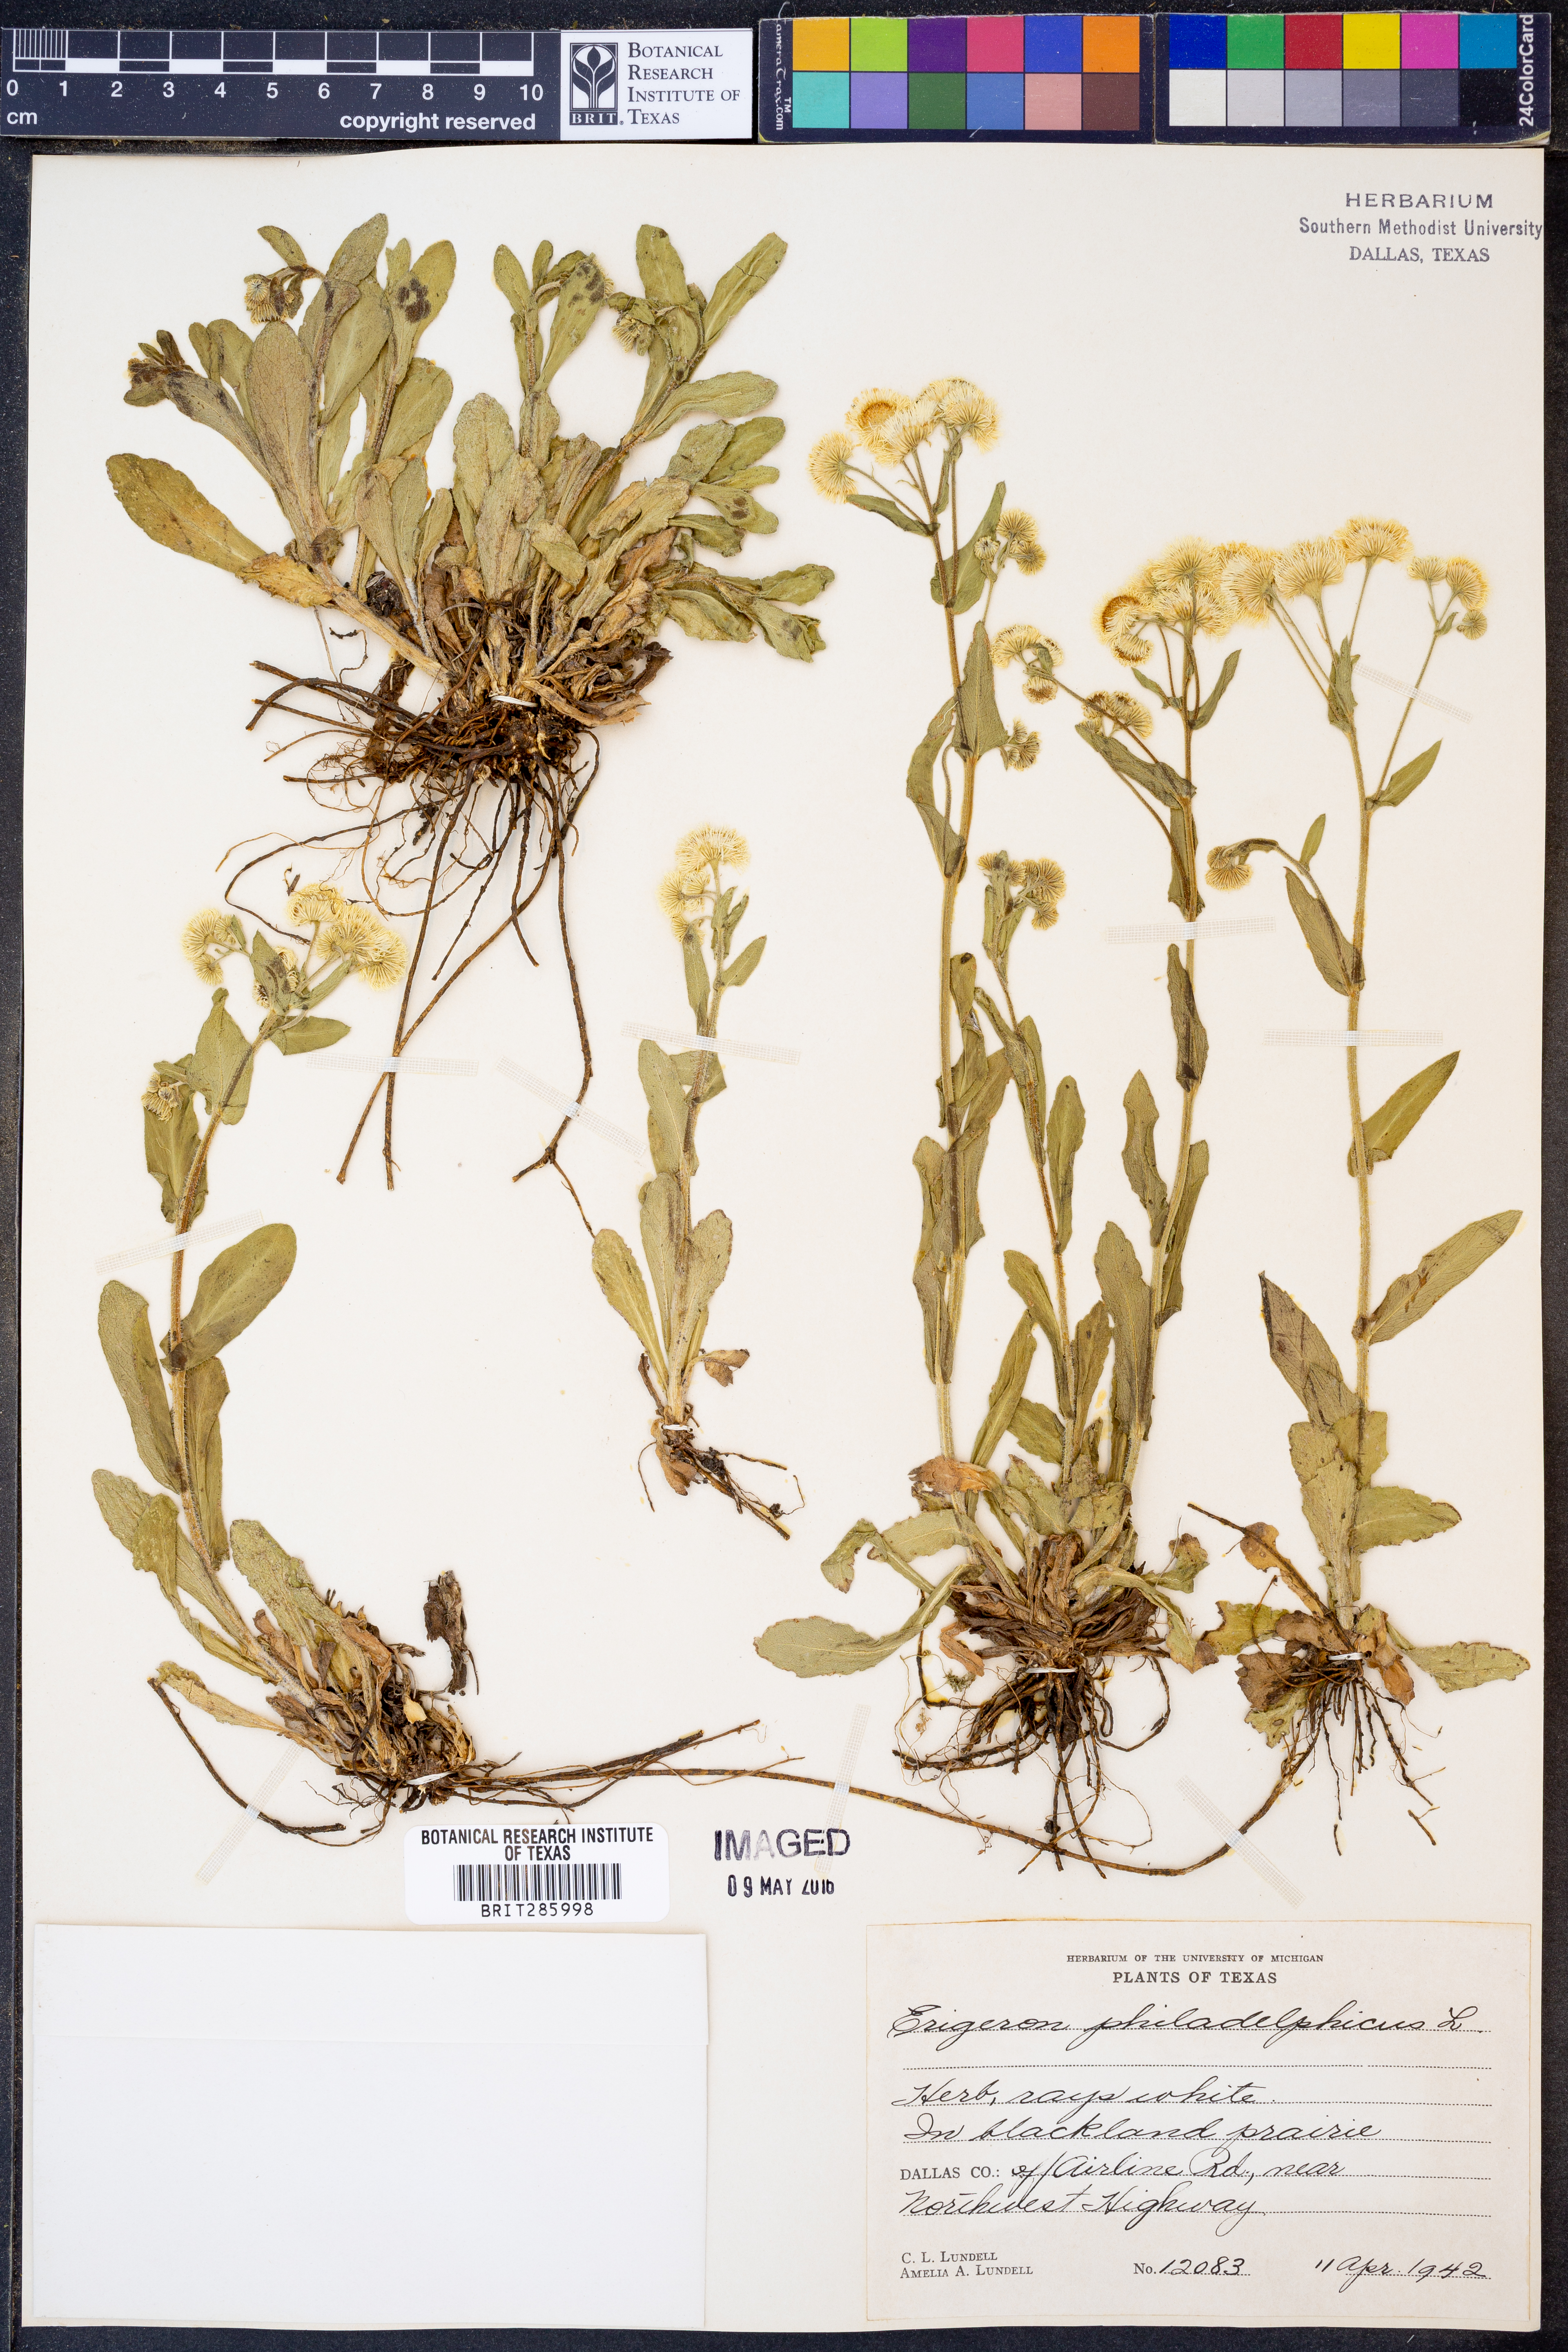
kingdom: Plantae
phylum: Tracheophyta
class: Magnoliopsida
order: Asterales
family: Asteraceae
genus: Erigeron
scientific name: Erigeron philadelphicus
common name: Robin's-plantain
